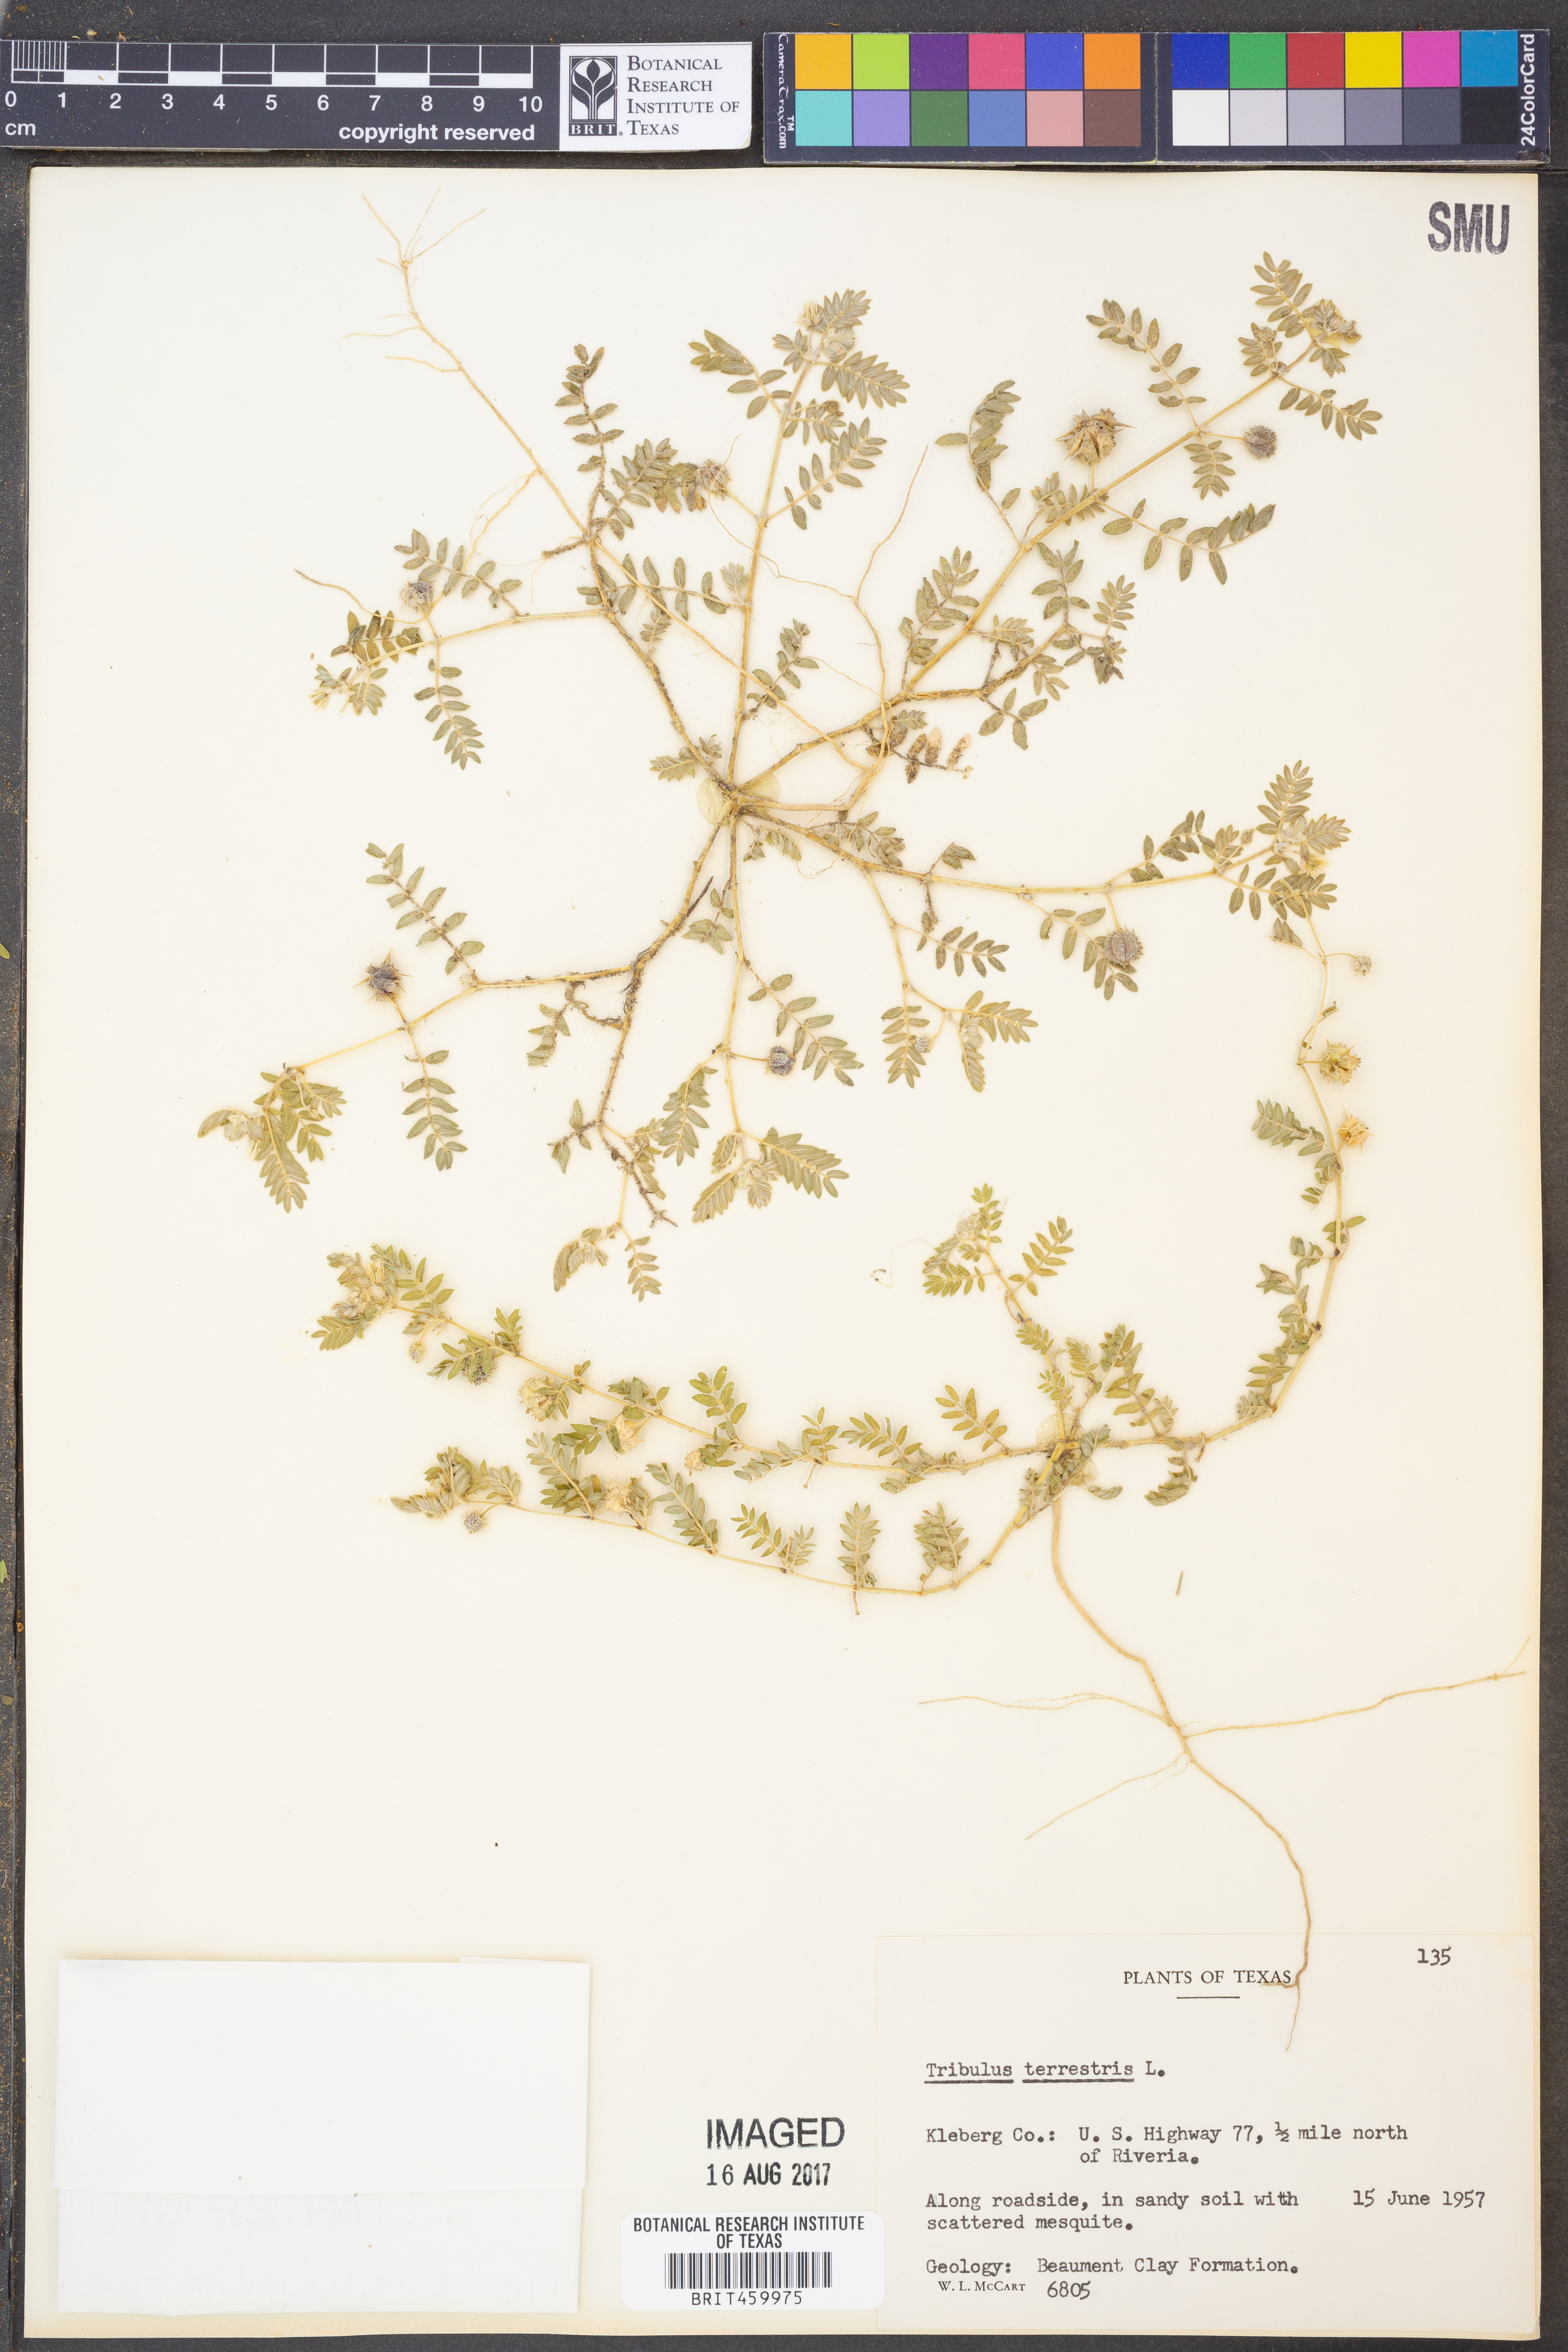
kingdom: Plantae
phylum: Tracheophyta
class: Magnoliopsida
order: Zygophyllales
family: Zygophyllaceae
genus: Tribulus
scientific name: Tribulus terrestris
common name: Puncturevine
